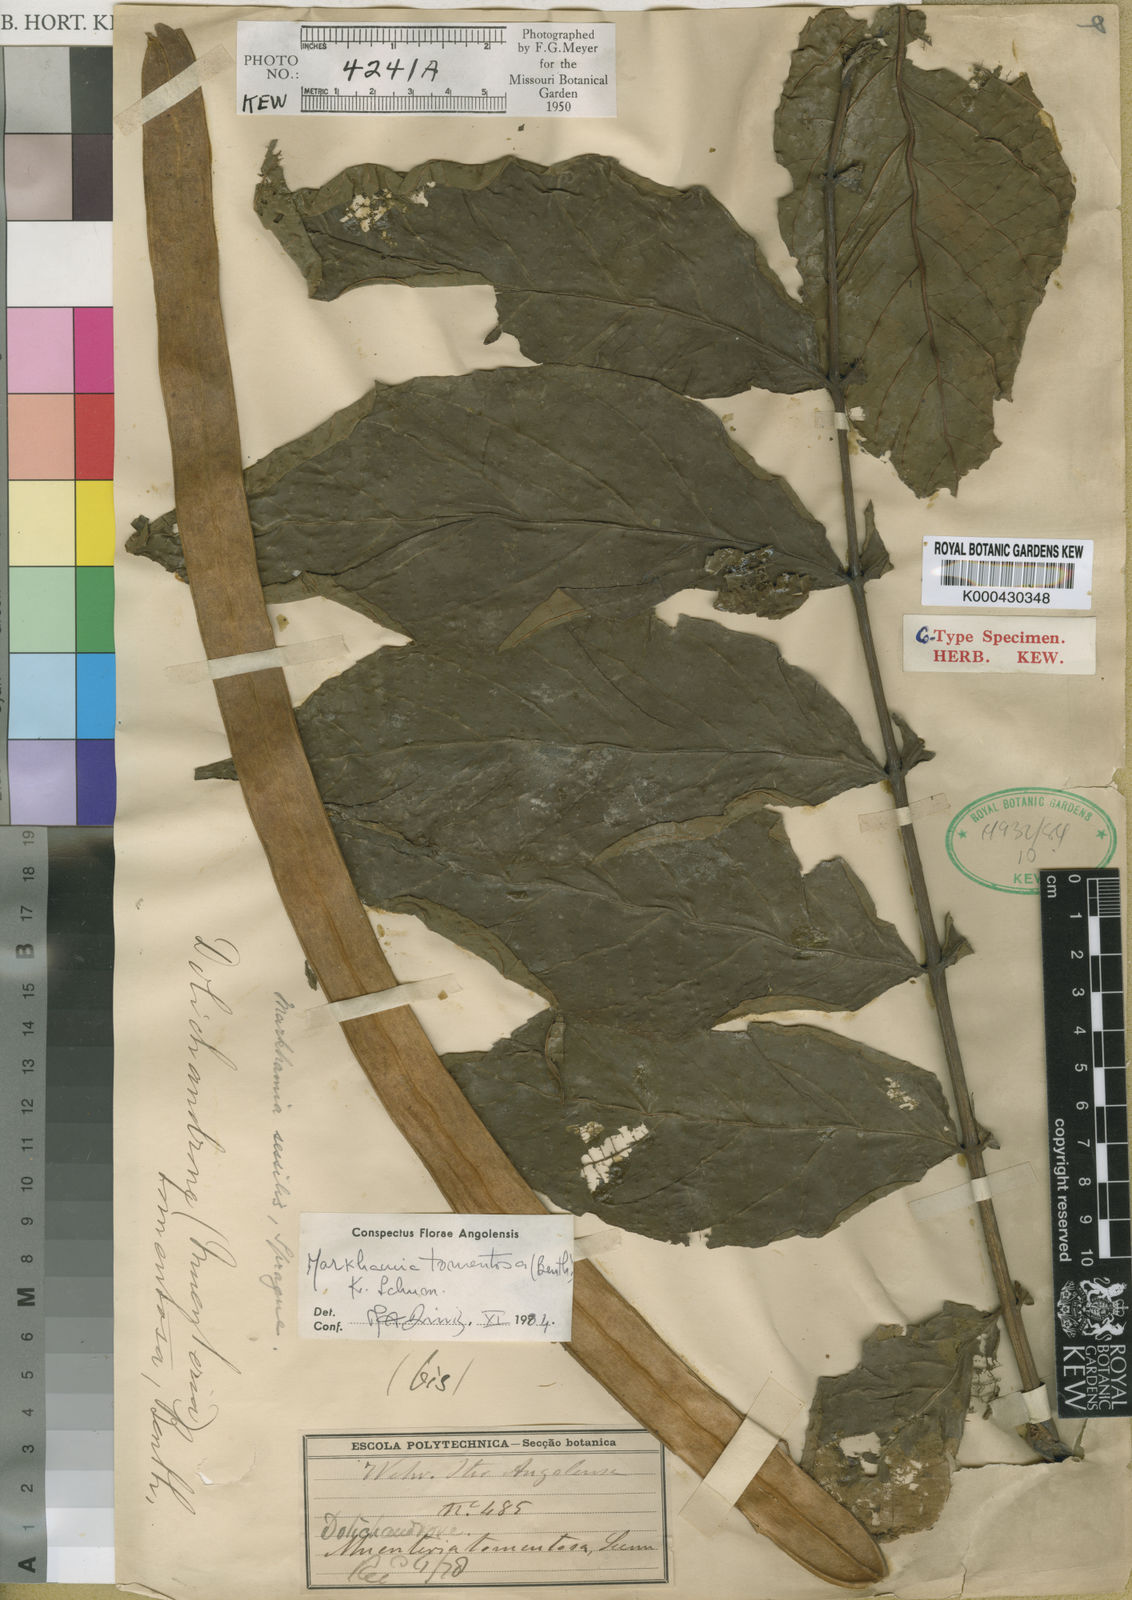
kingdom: Plantae
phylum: Tracheophyta
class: Magnoliopsida
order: Lamiales
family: Bignoniaceae
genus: Markhamia
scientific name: Markhamia tomentosa
